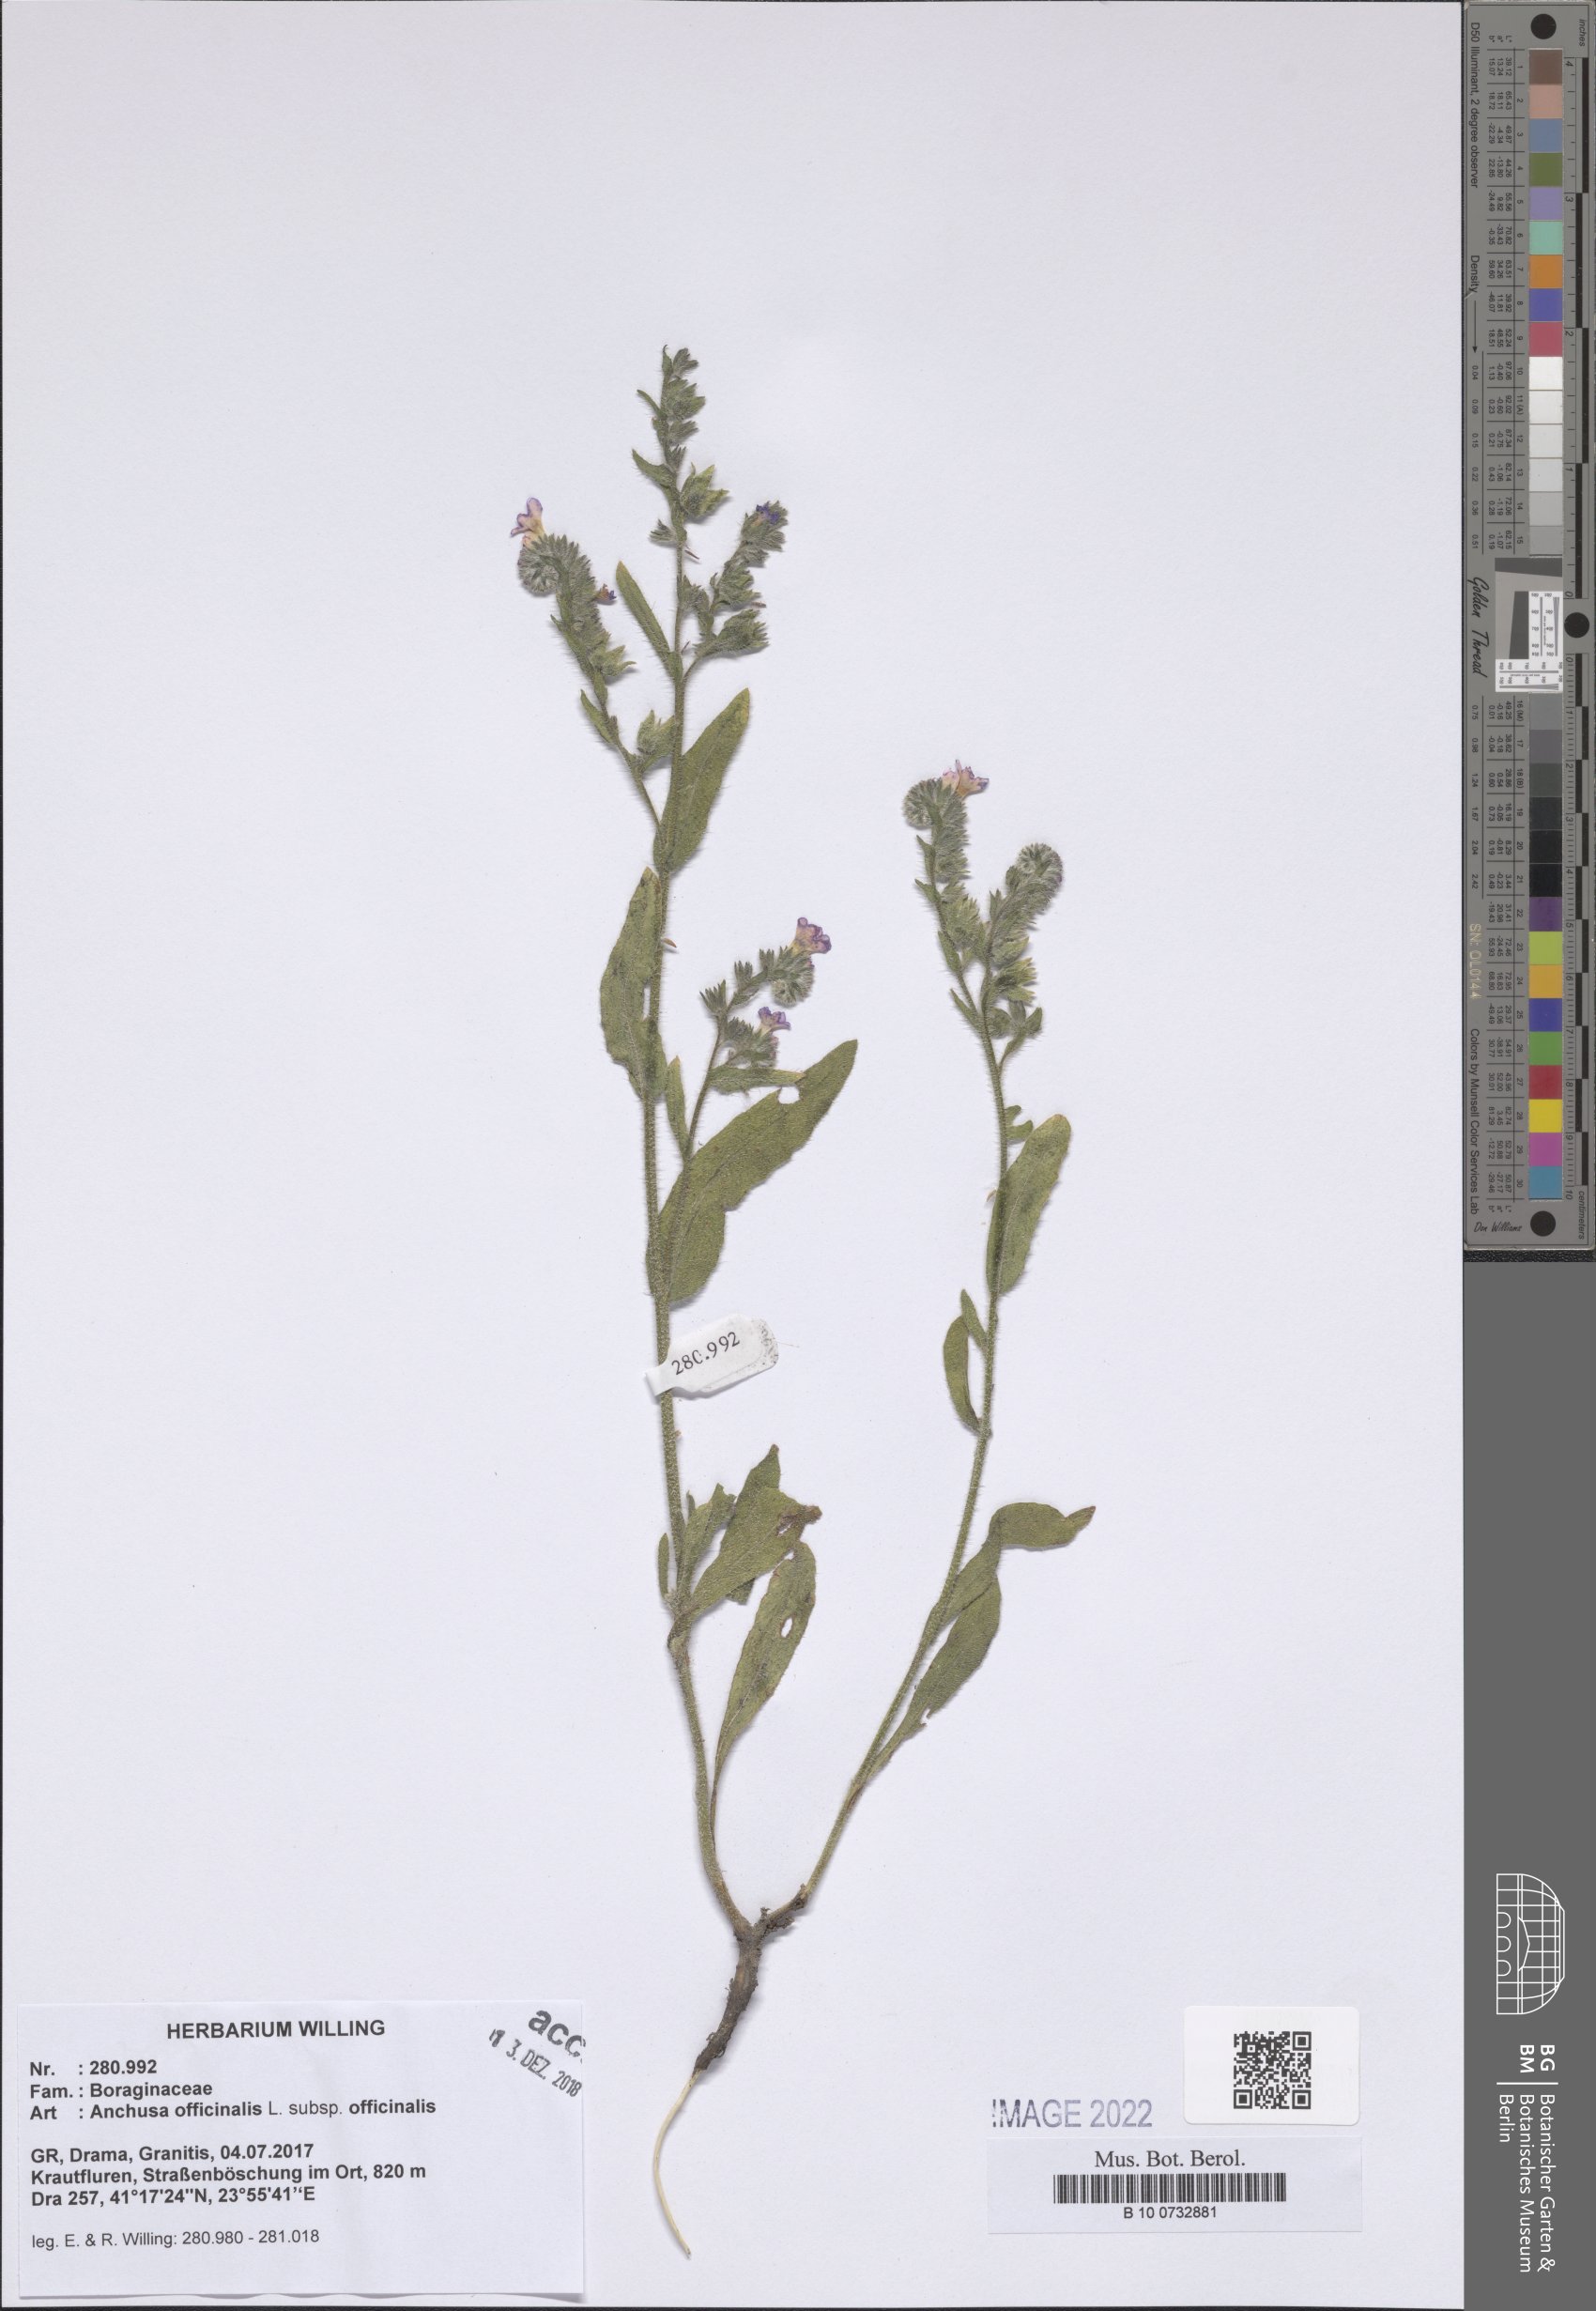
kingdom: Plantae
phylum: Tracheophyta
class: Magnoliopsida
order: Boraginales
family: Boraginaceae
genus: Anchusa
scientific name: Anchusa officinalis
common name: Alkanet
